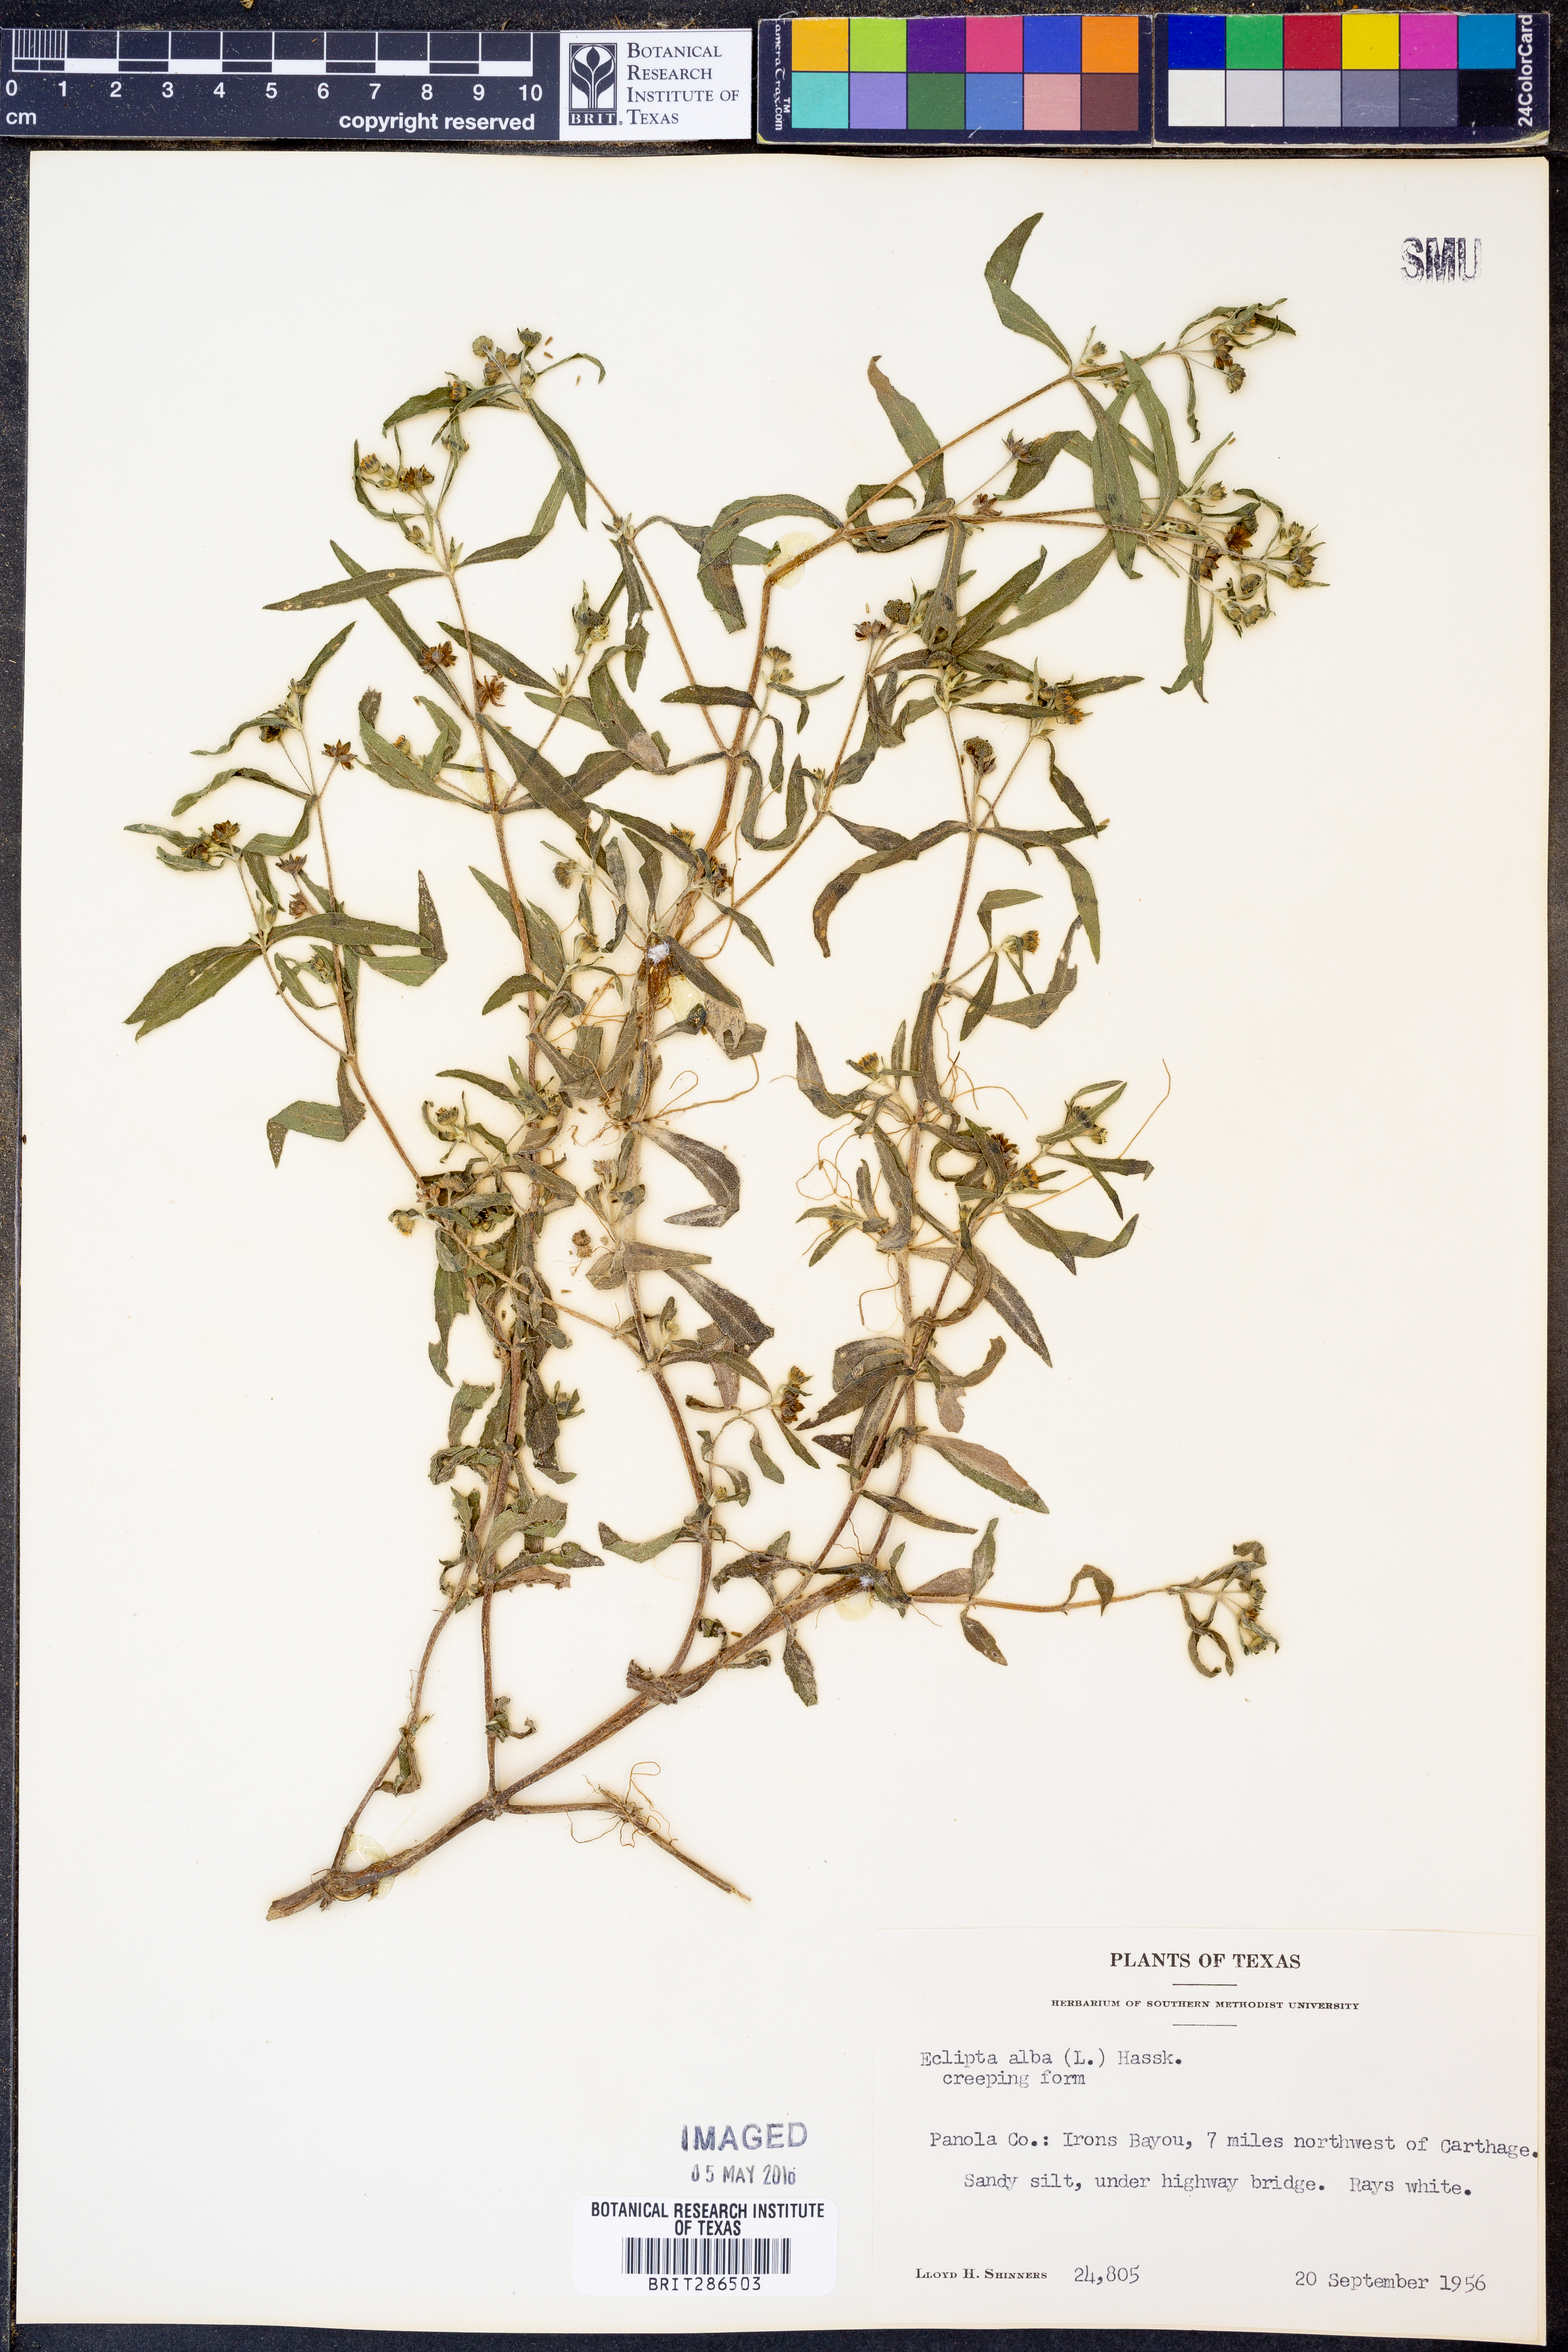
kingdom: Plantae
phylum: Tracheophyta
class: Magnoliopsida
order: Asterales
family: Asteraceae
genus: Eclipta
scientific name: Eclipta alba
